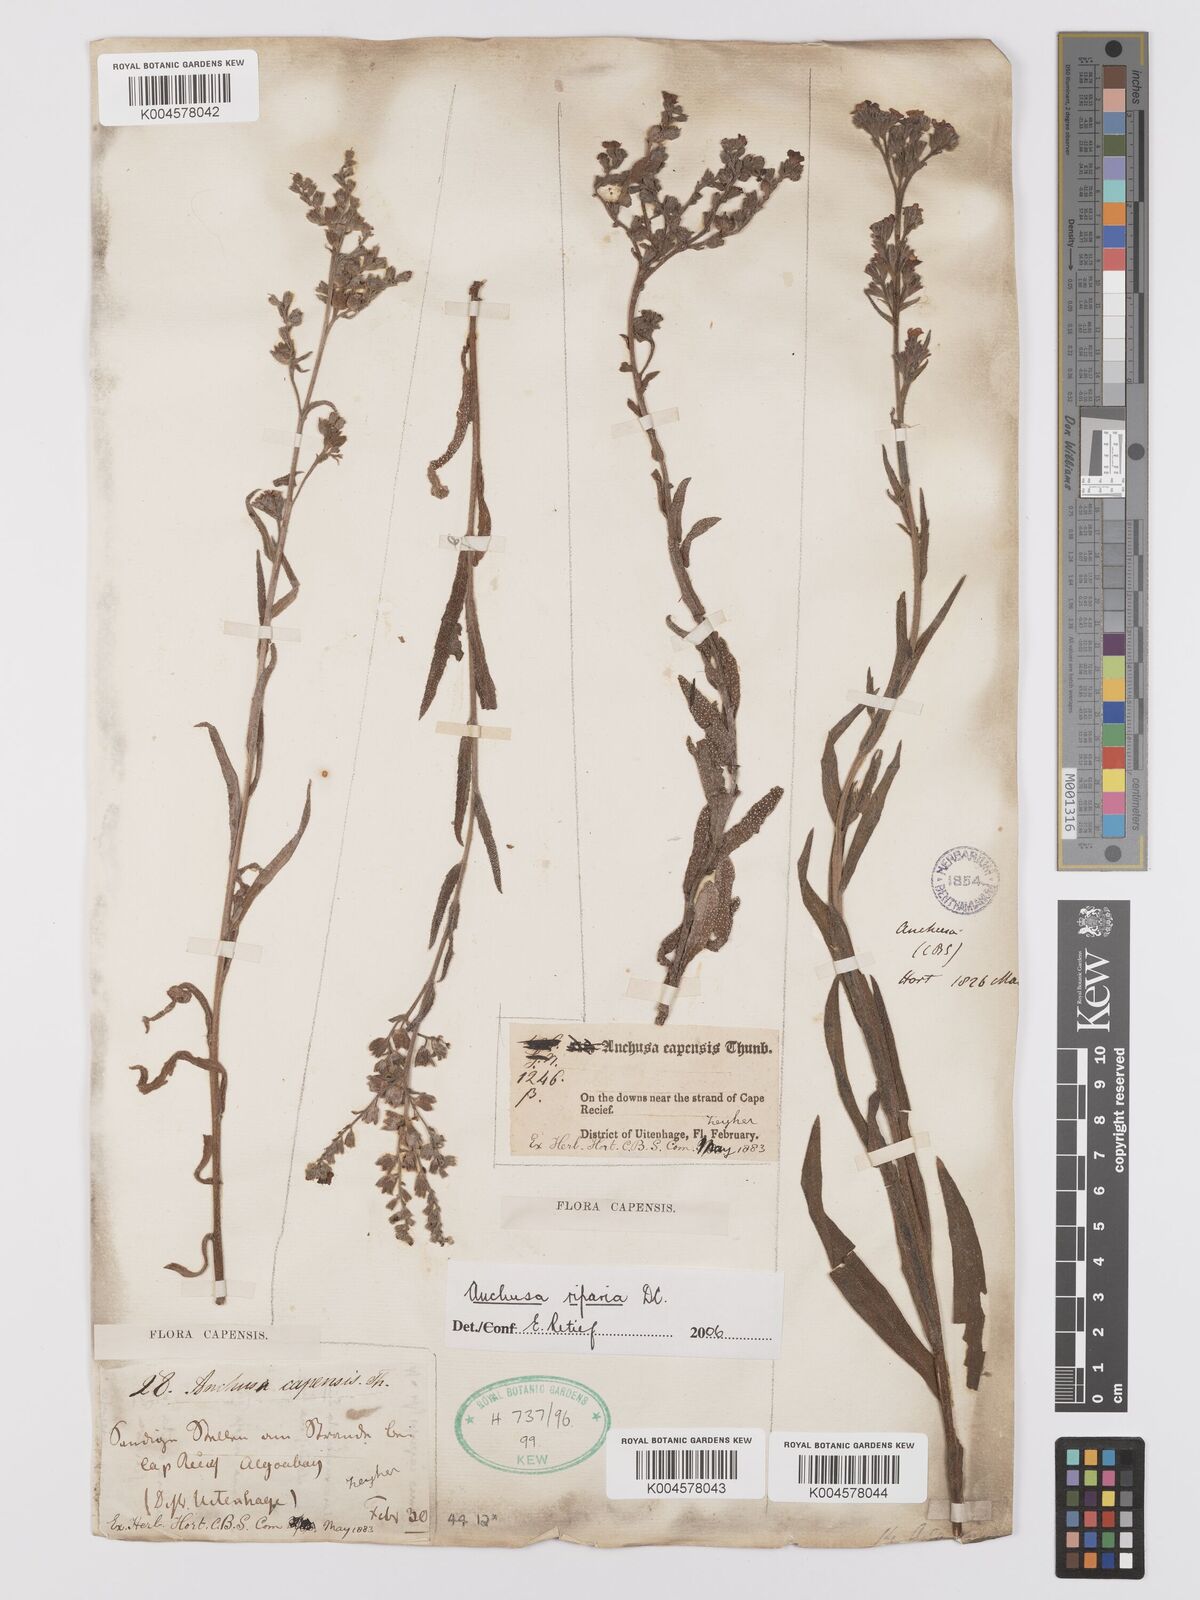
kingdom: Plantae
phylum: Tracheophyta
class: Magnoliopsida
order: Boraginales
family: Boraginaceae
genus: Anchusa
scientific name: Anchusa capensis
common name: Cape bugloss
